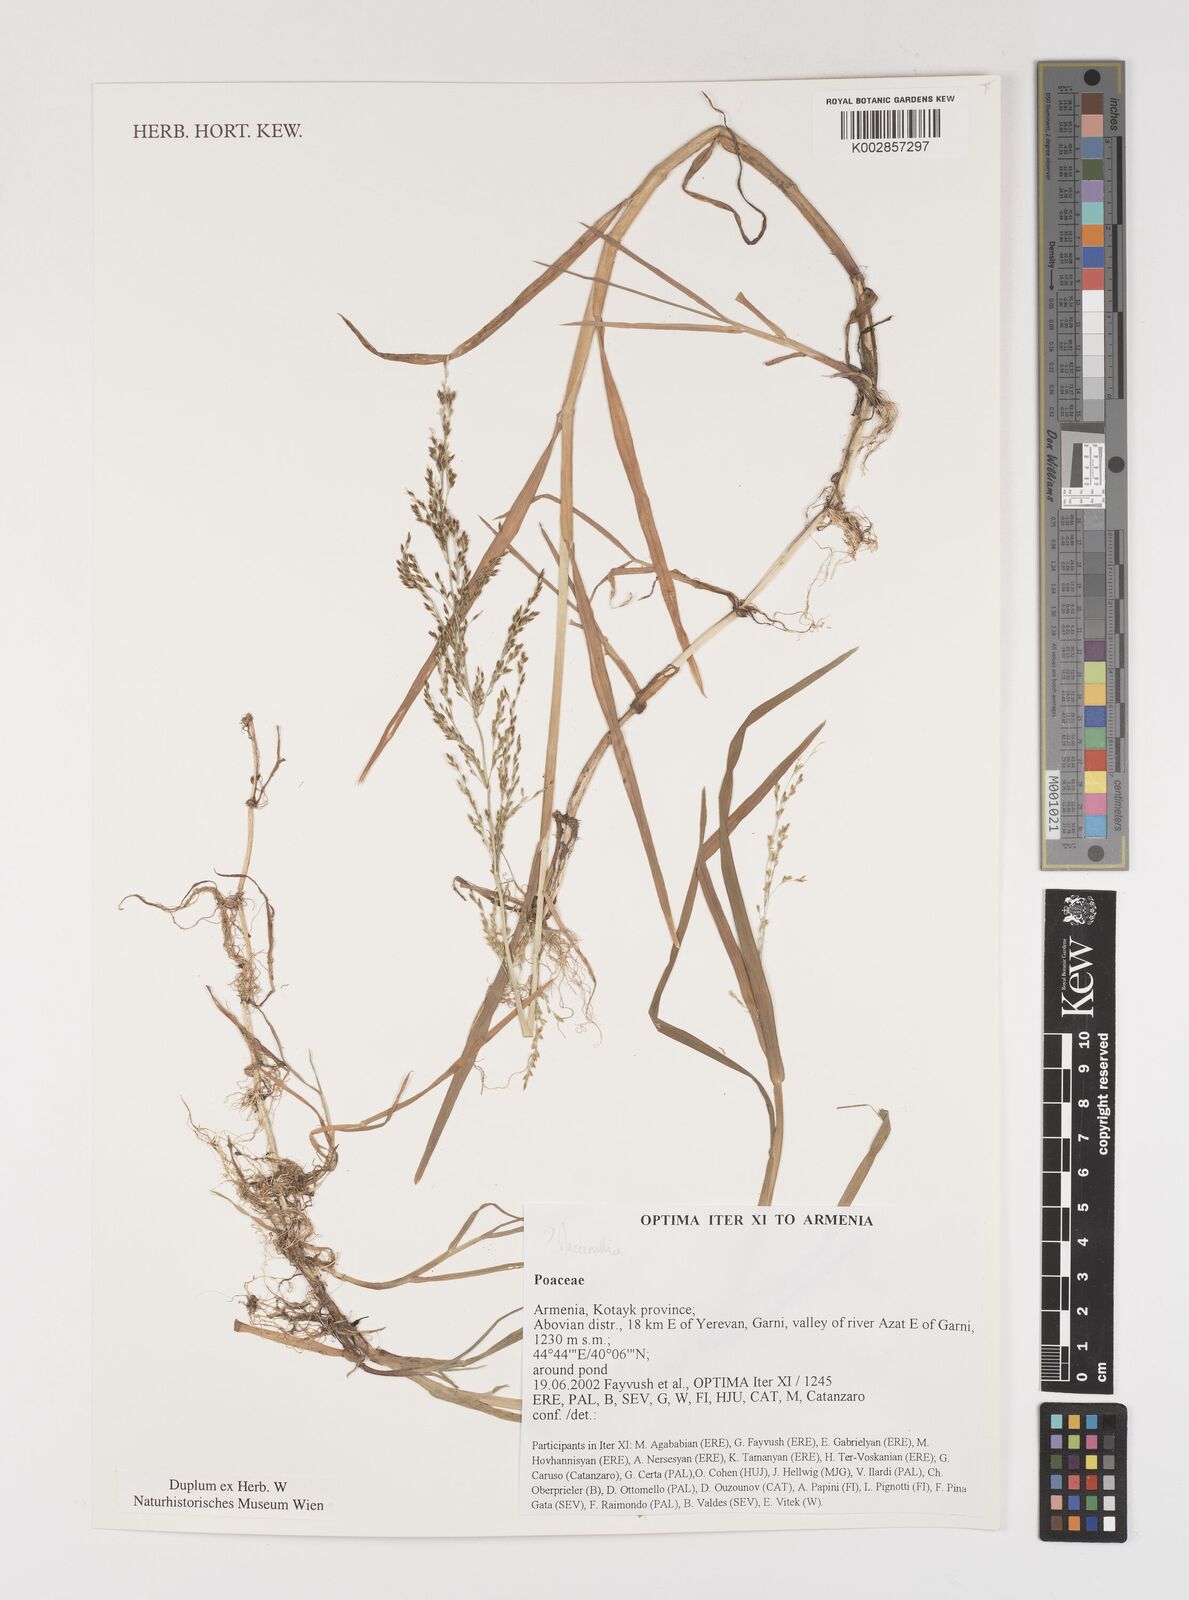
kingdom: Plantae
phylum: Tracheophyta
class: Liliopsida
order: Poales
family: Poaceae
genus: Puccinellia
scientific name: Puccinellia
